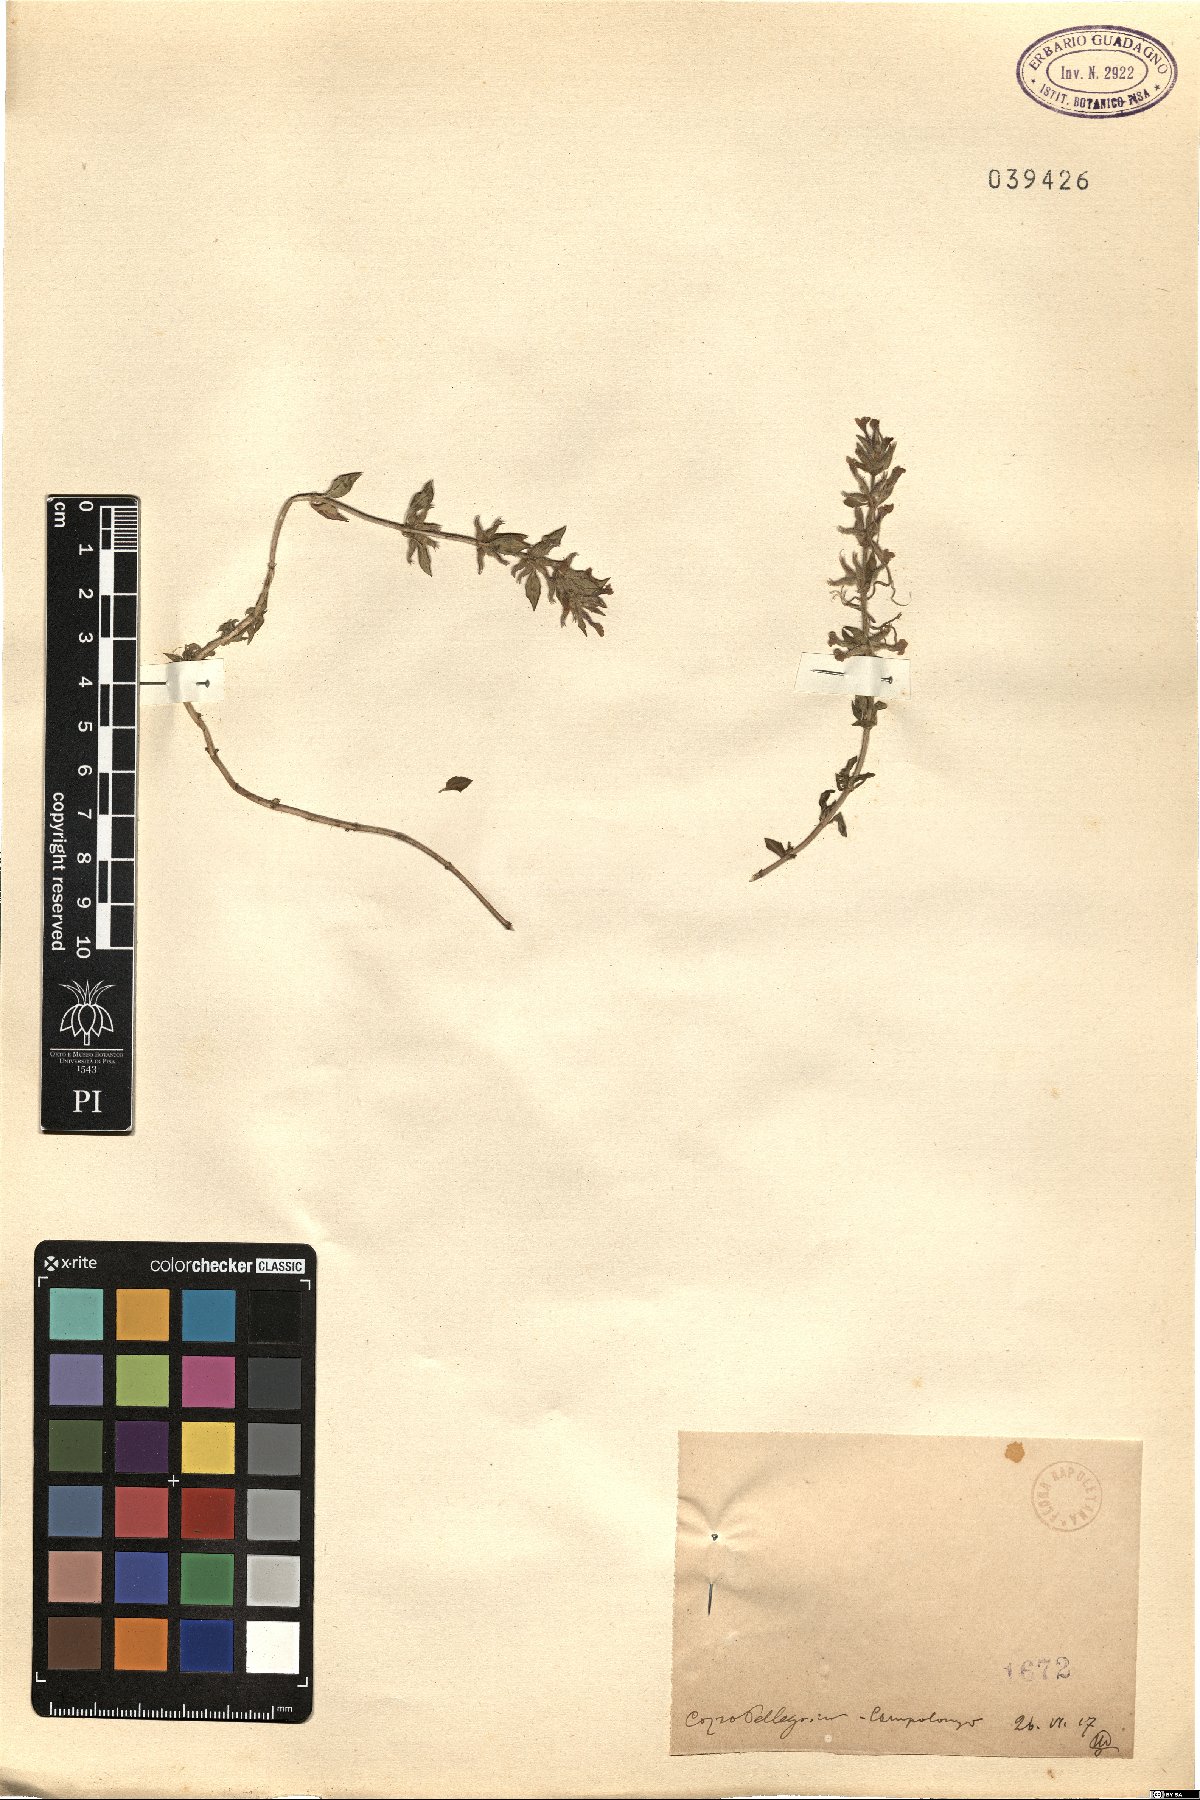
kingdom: Plantae
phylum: Tracheophyta
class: Magnoliopsida
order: Lamiales
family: Lamiaceae
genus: Calamintha
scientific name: Calamintha
